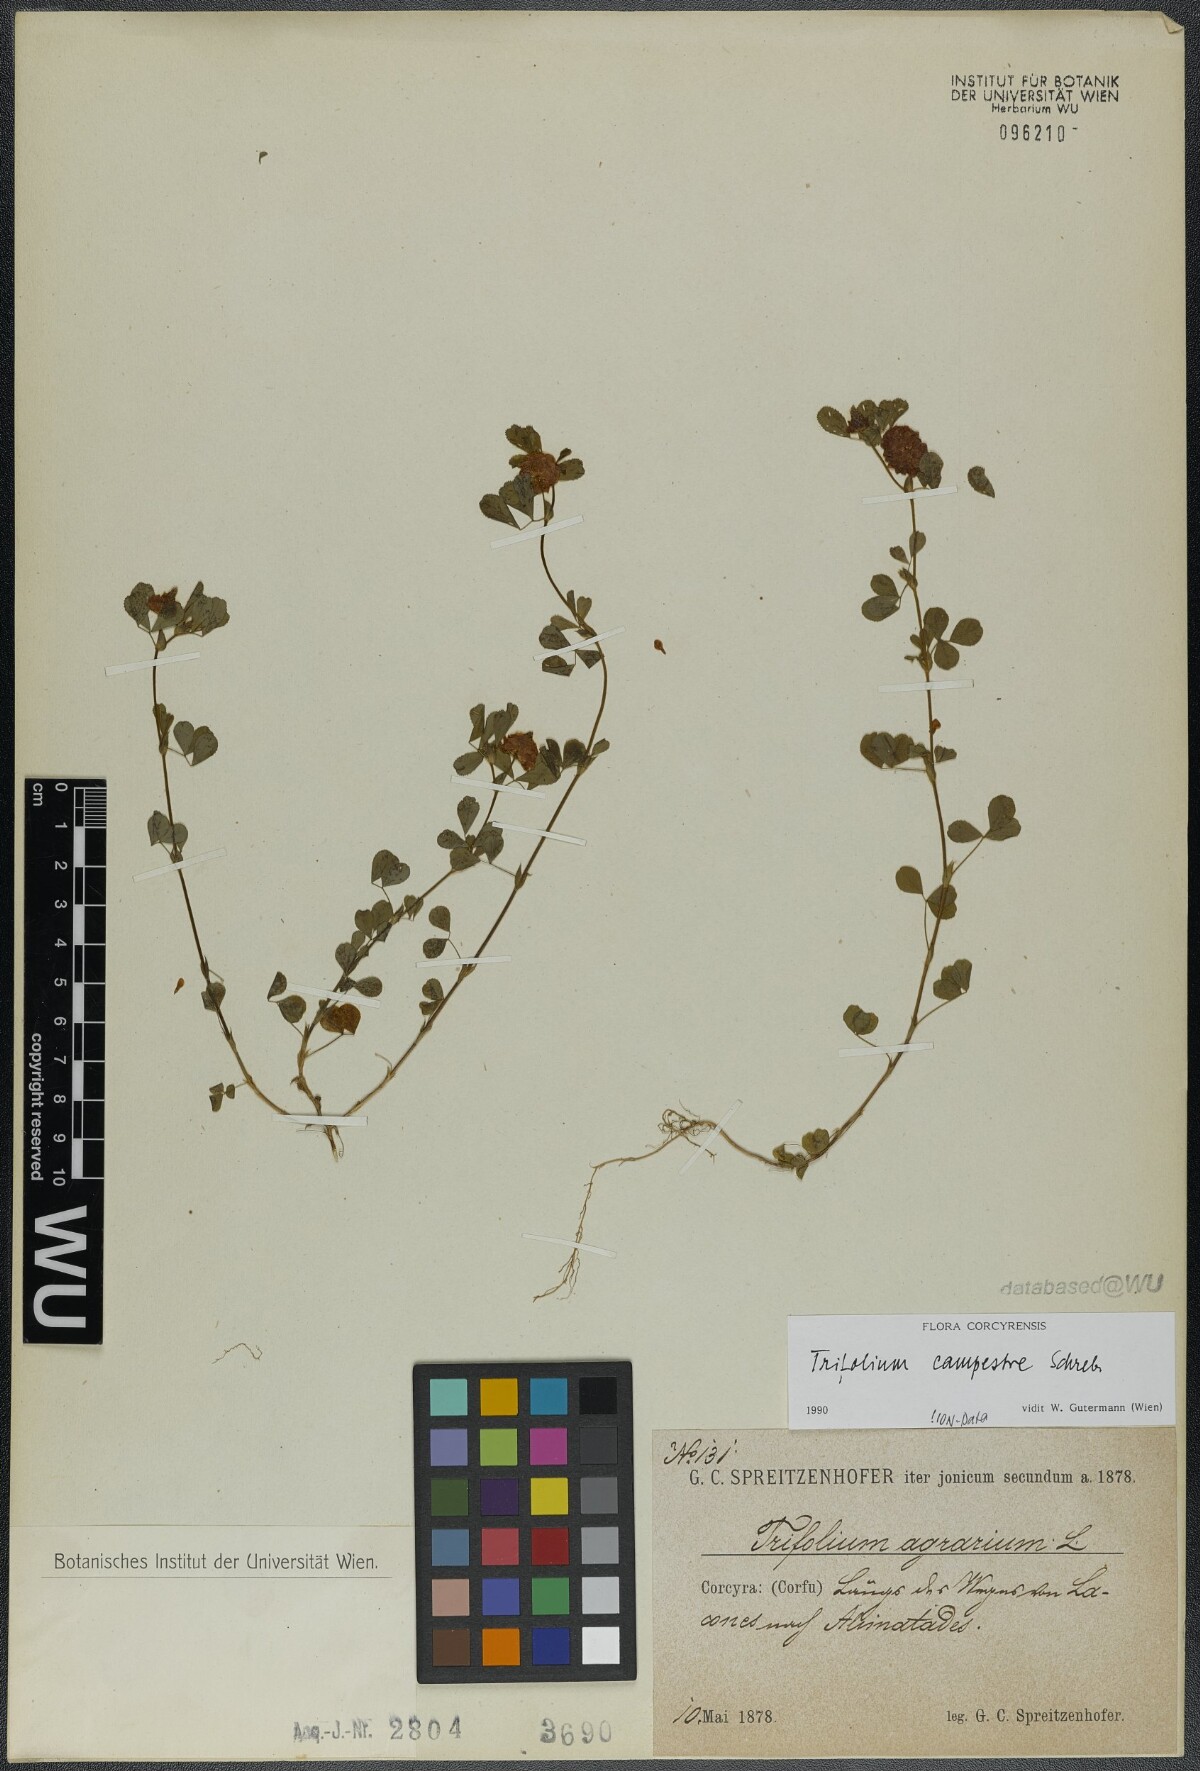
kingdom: Plantae
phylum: Tracheophyta
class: Magnoliopsida
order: Fabales
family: Fabaceae
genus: Trifolium
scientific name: Trifolium campestre
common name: Field clover
